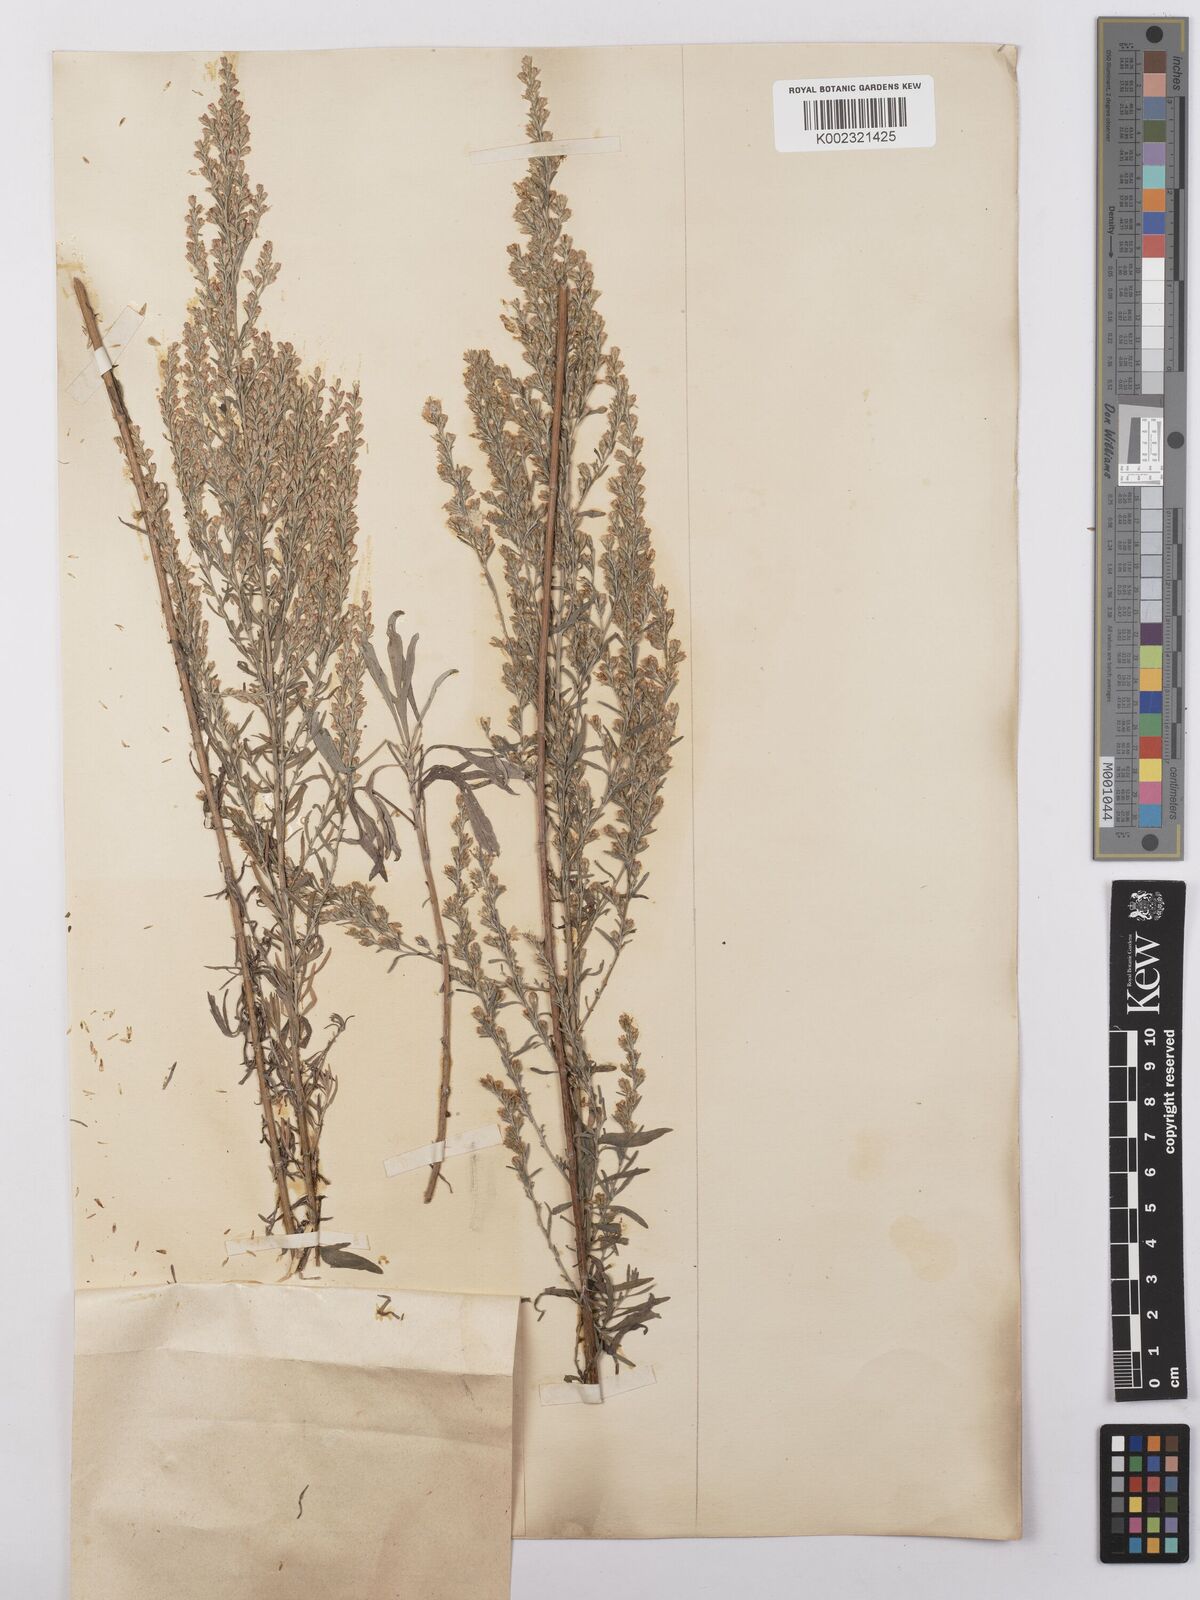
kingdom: Plantae
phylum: Tracheophyta
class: Magnoliopsida
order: Asterales
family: Asteraceae
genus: Artemisia
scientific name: Artemisia caerulescens
